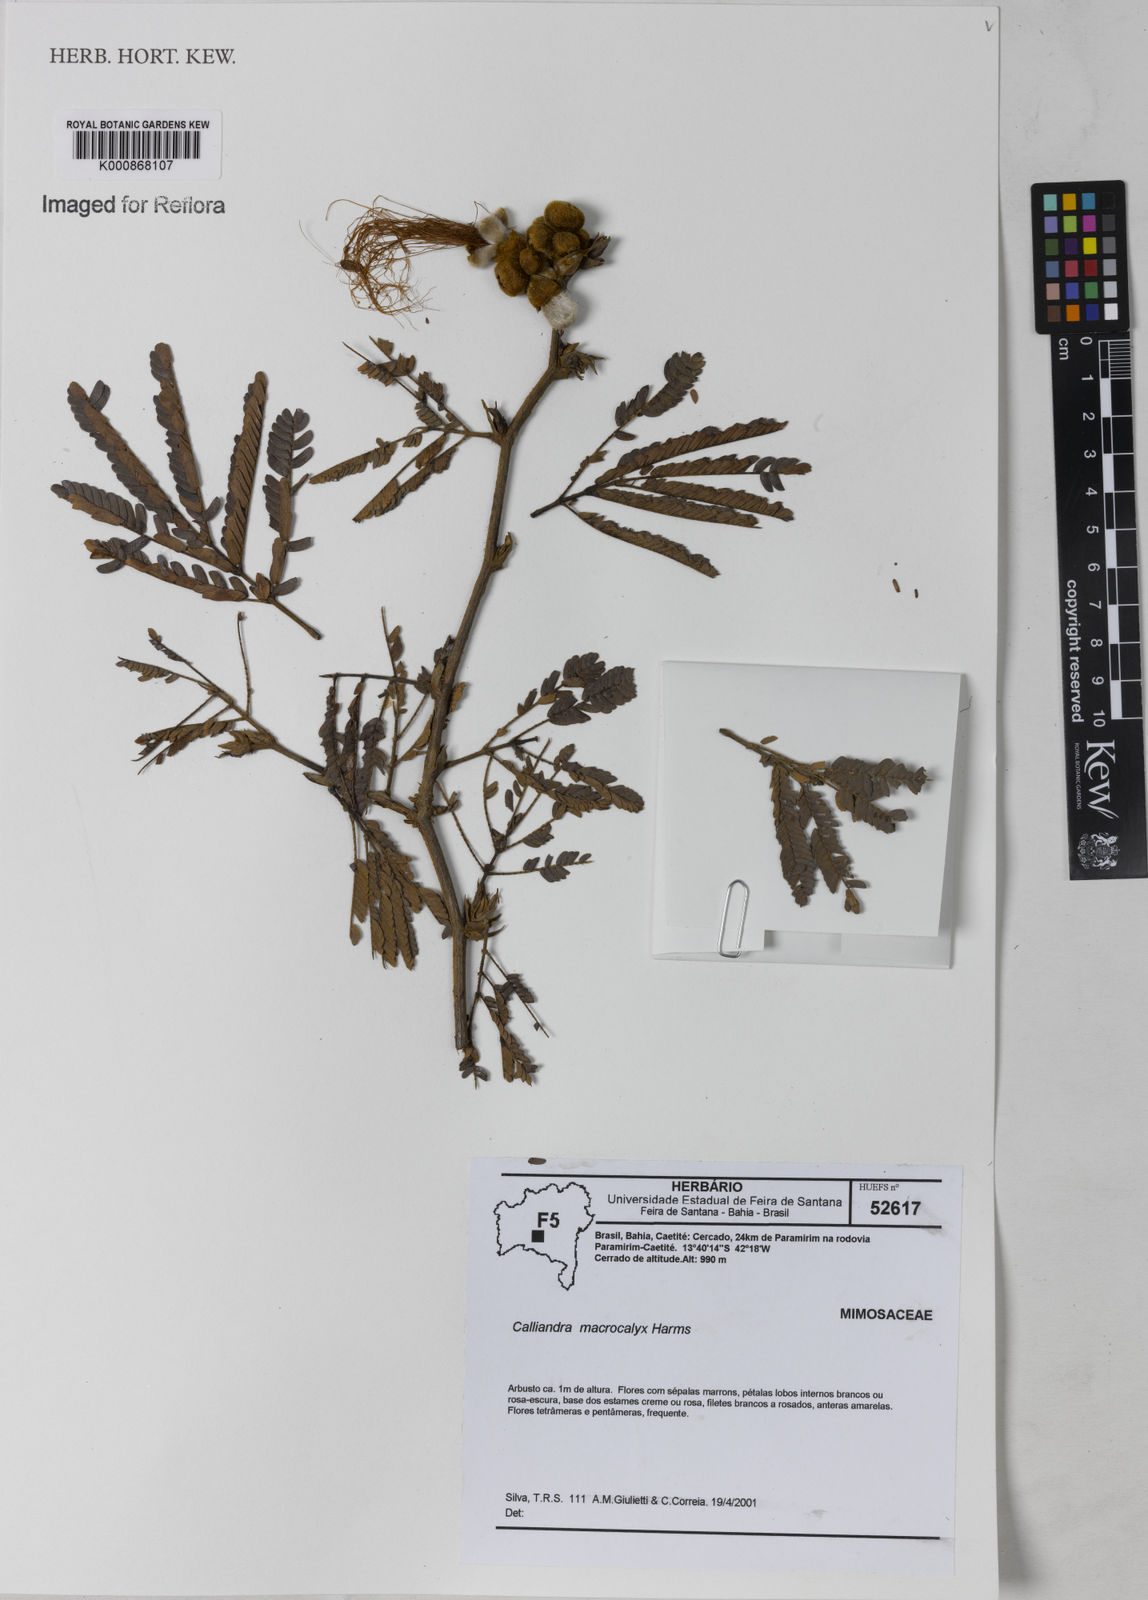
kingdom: Plantae
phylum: Tracheophyta
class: Magnoliopsida
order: Fabales
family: Fabaceae
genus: Calliandra
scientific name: Calliandra macrocalyx
